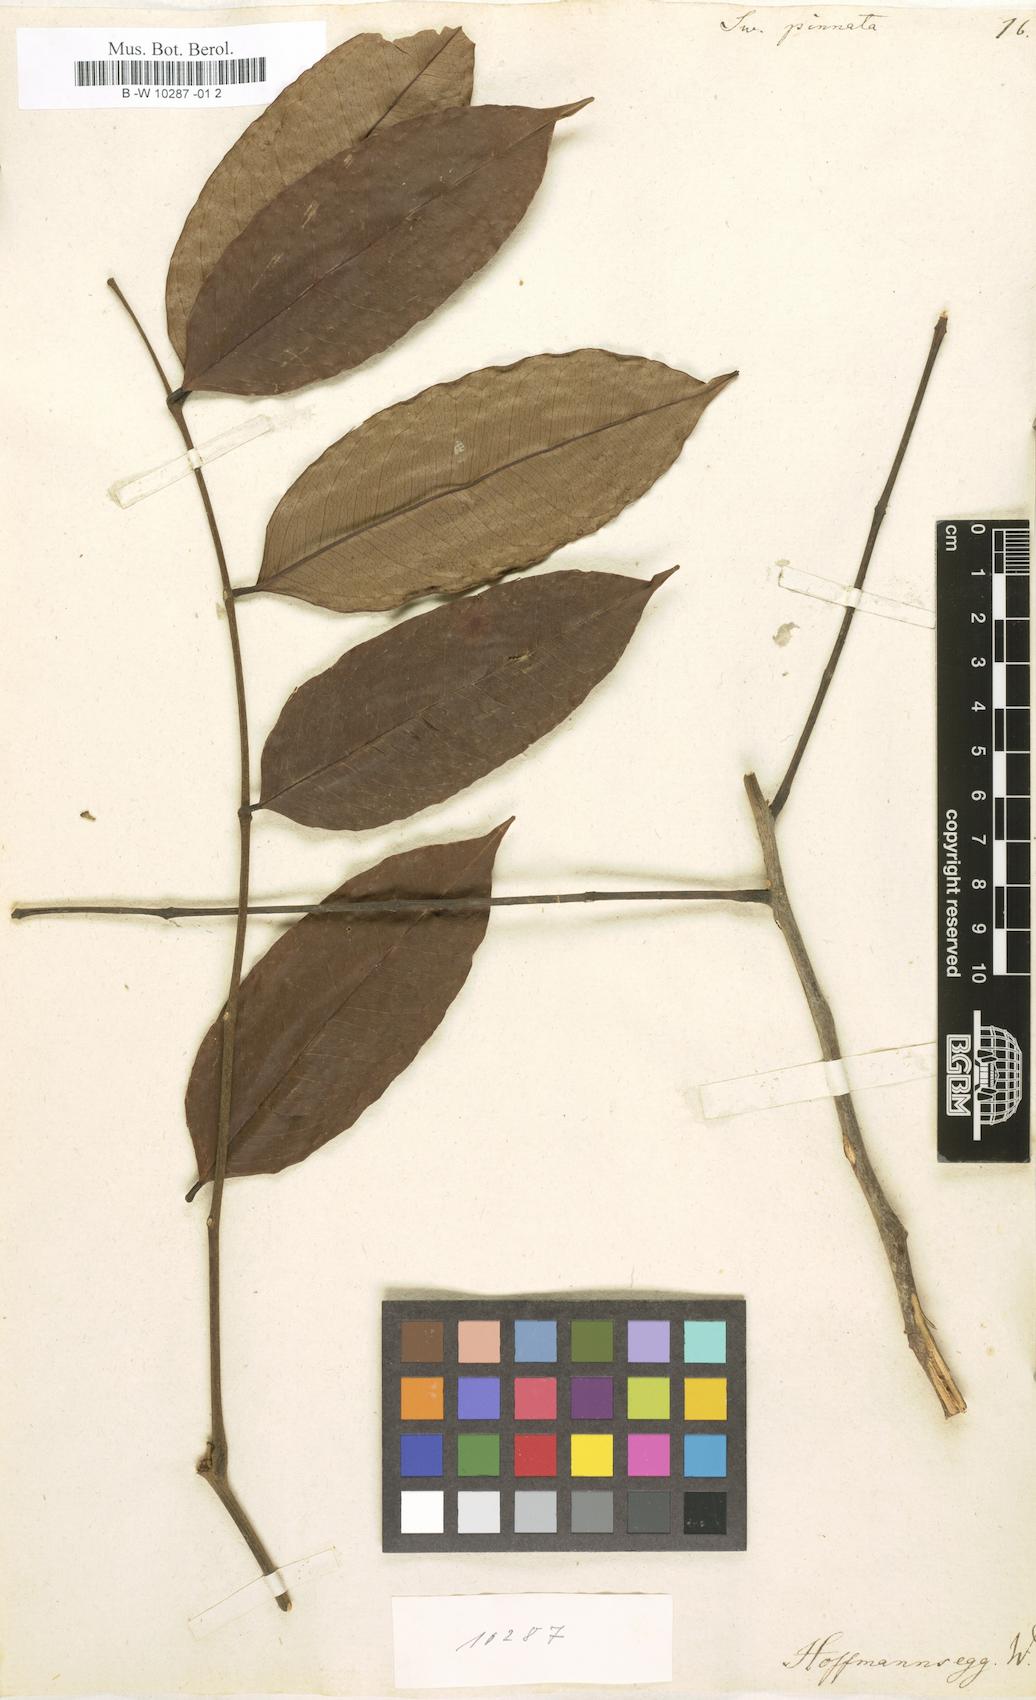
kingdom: Plantae
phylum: Tracheophyta
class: Magnoliopsida
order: Fabales
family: Fabaceae
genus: Swartzia
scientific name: Swartzia pinnata
